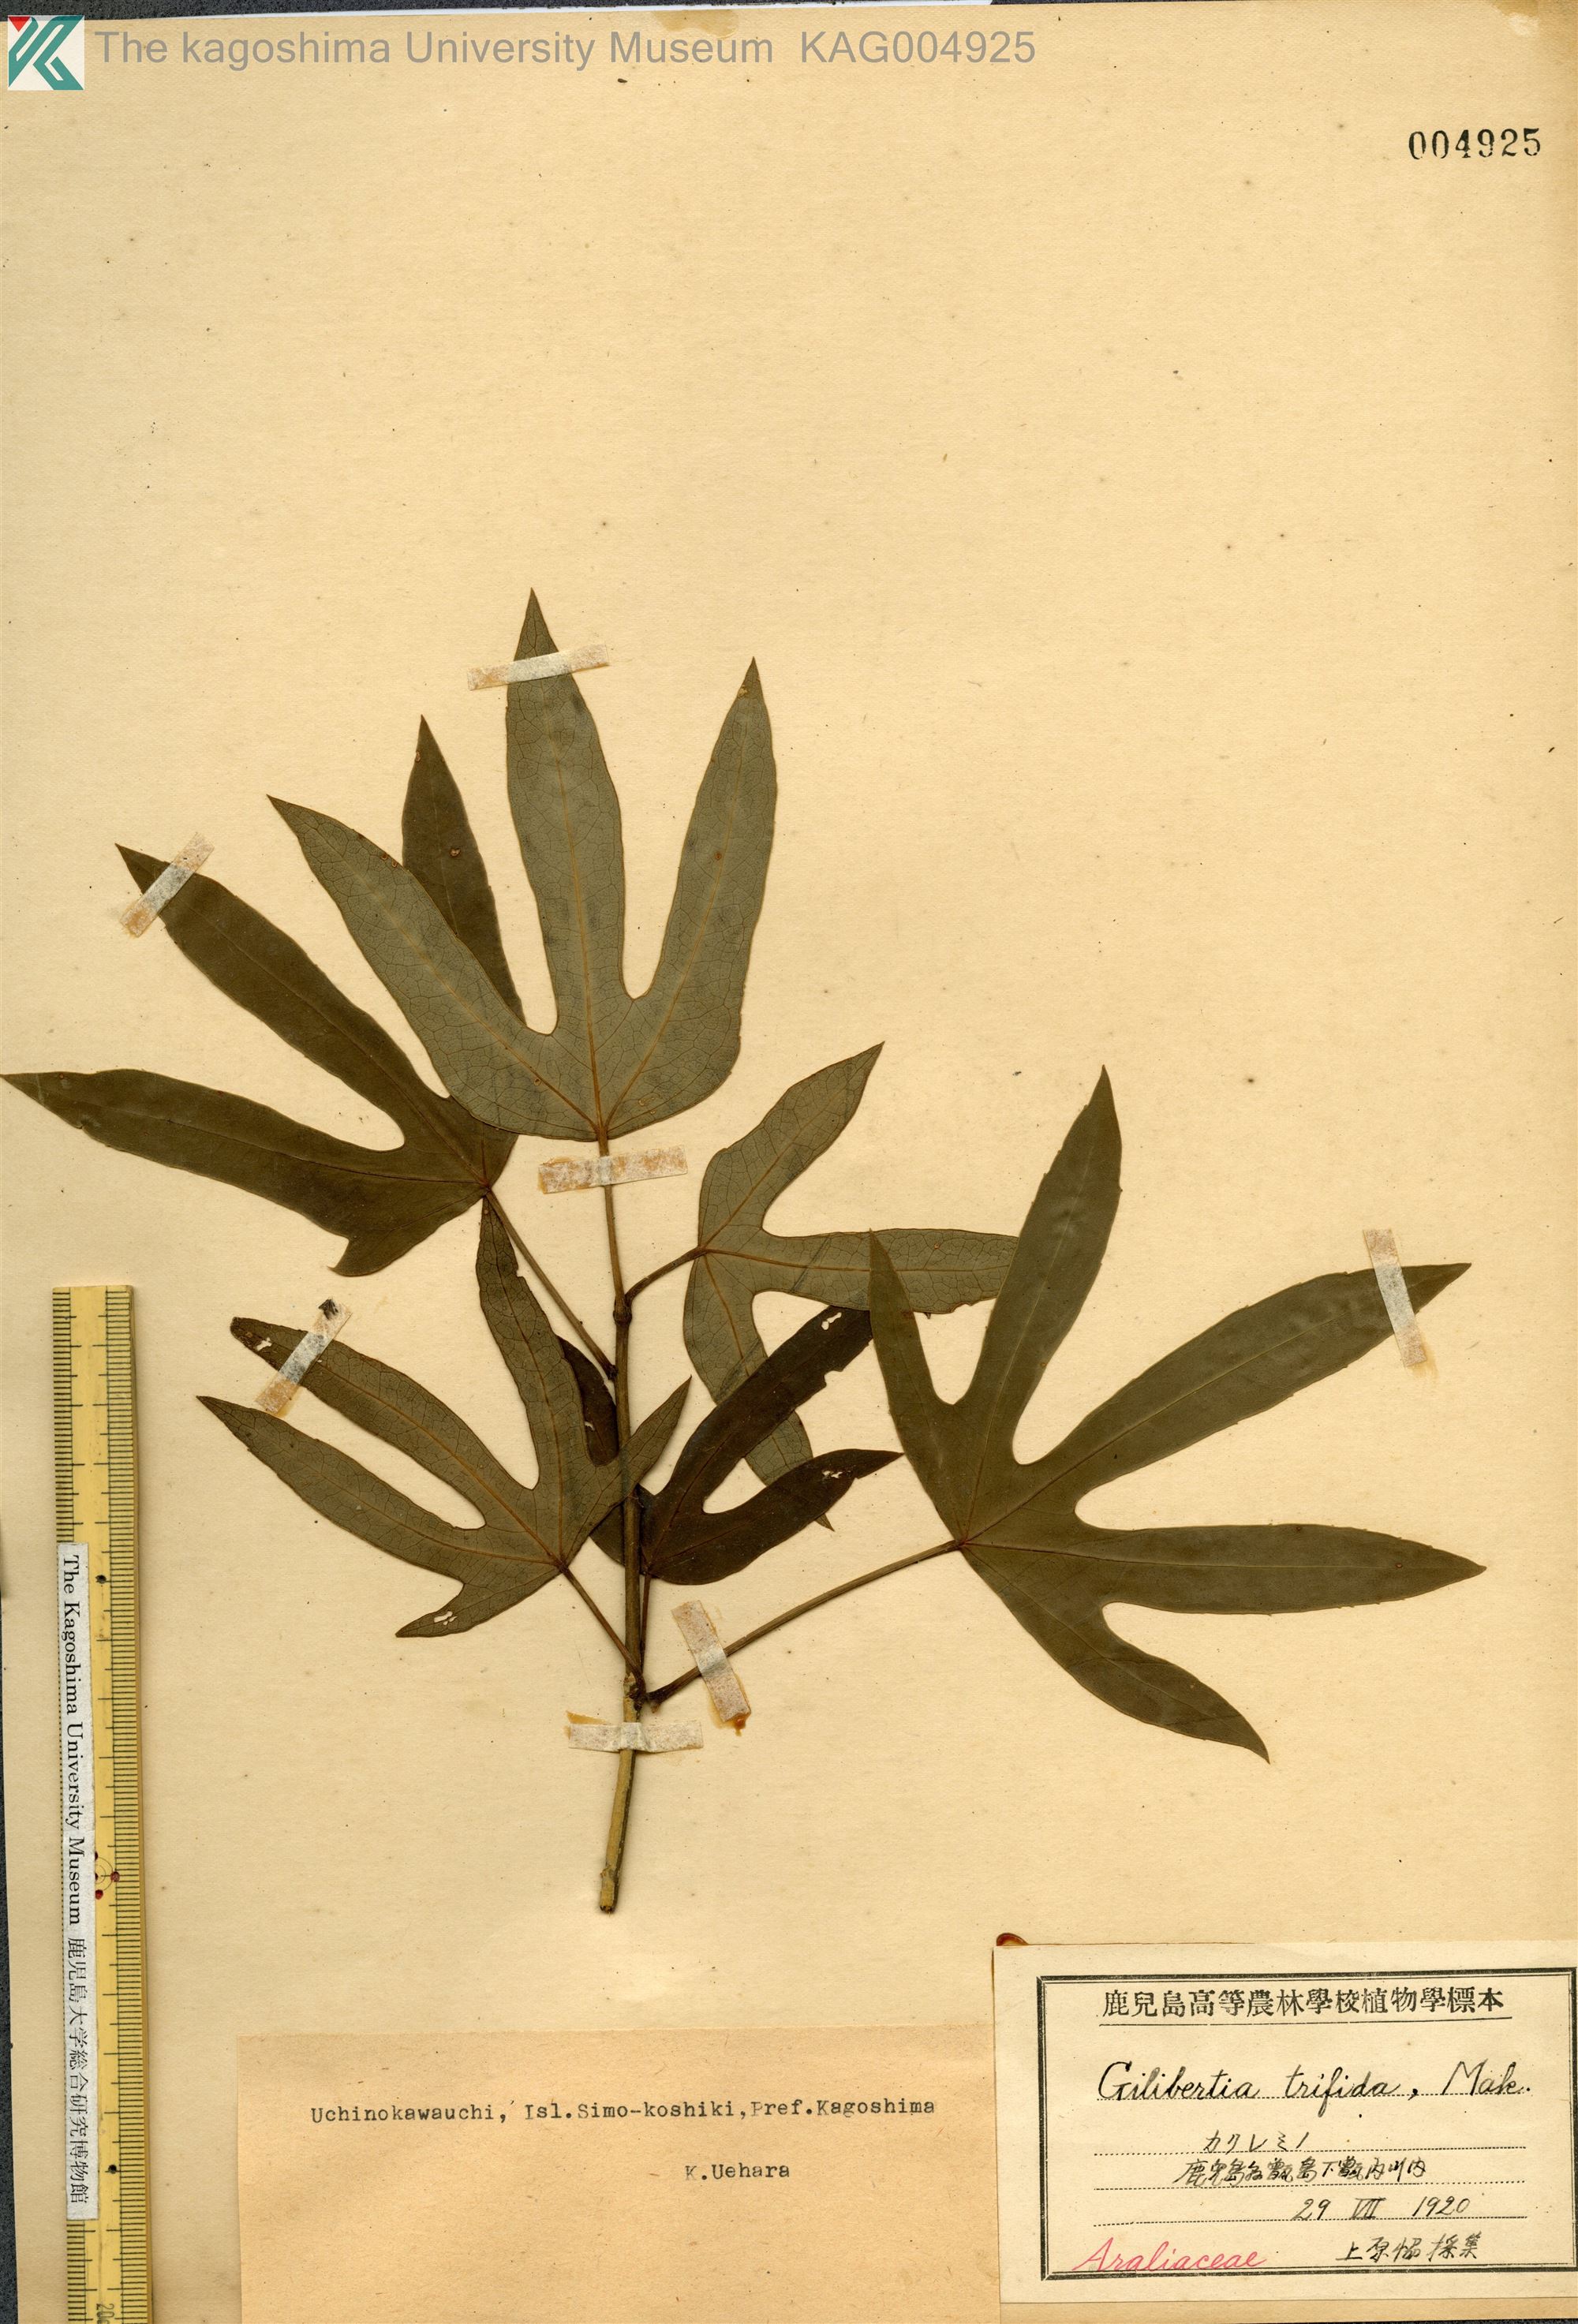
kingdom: Plantae
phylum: Tracheophyta
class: Magnoliopsida
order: Apiales
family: Araliaceae
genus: Dendropanax
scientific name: Dendropanax trifidus
